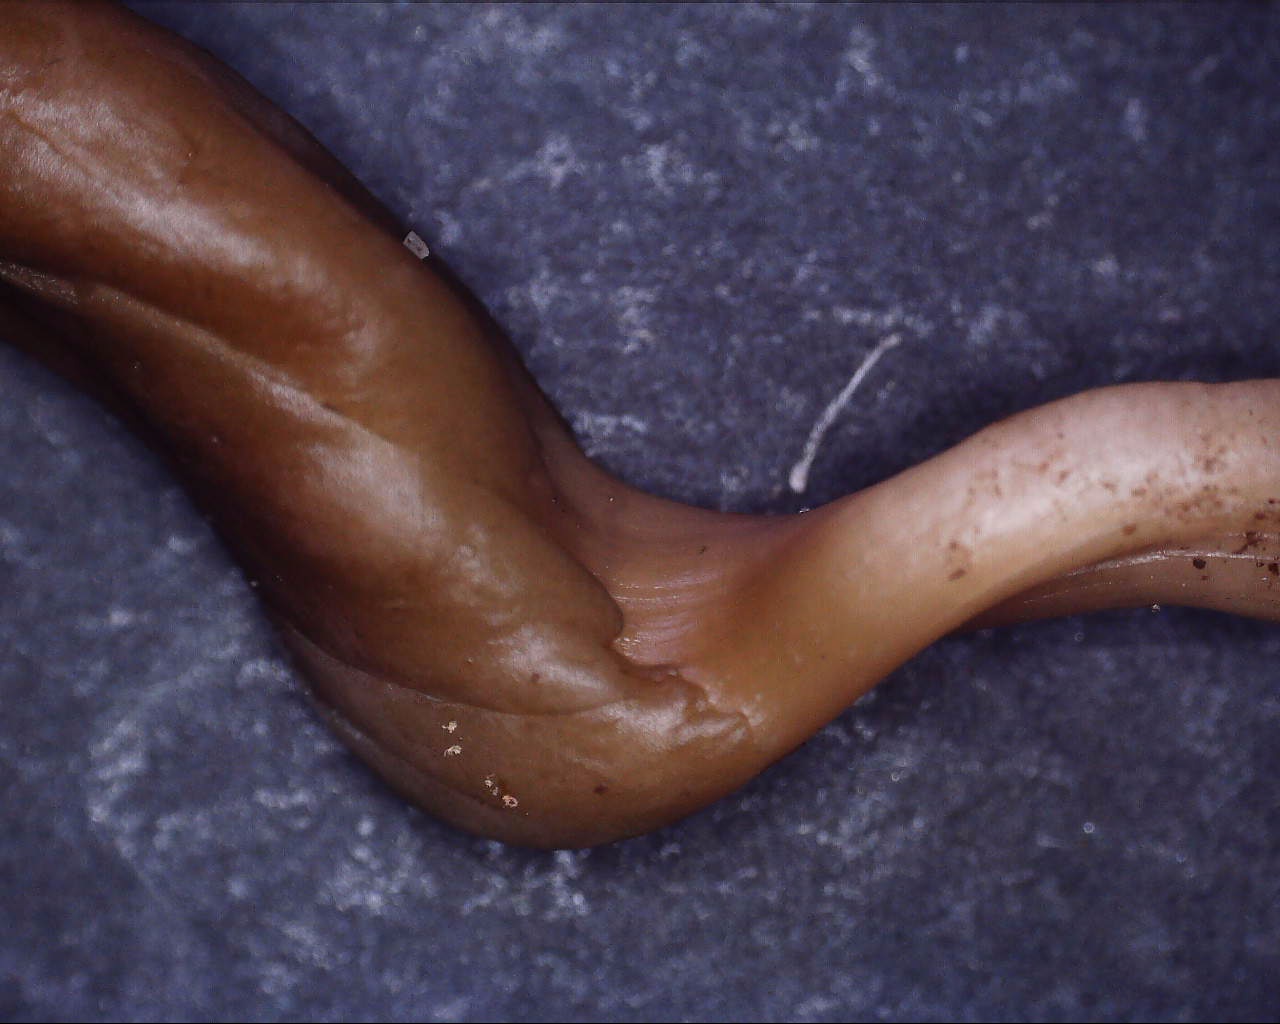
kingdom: Fungi
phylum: Ascomycota
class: Leotiomycetes
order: Leotiales
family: Leotiaceae
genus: Microglossum
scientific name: Microglossum olivaceum
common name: olivenbrun farvetunge
